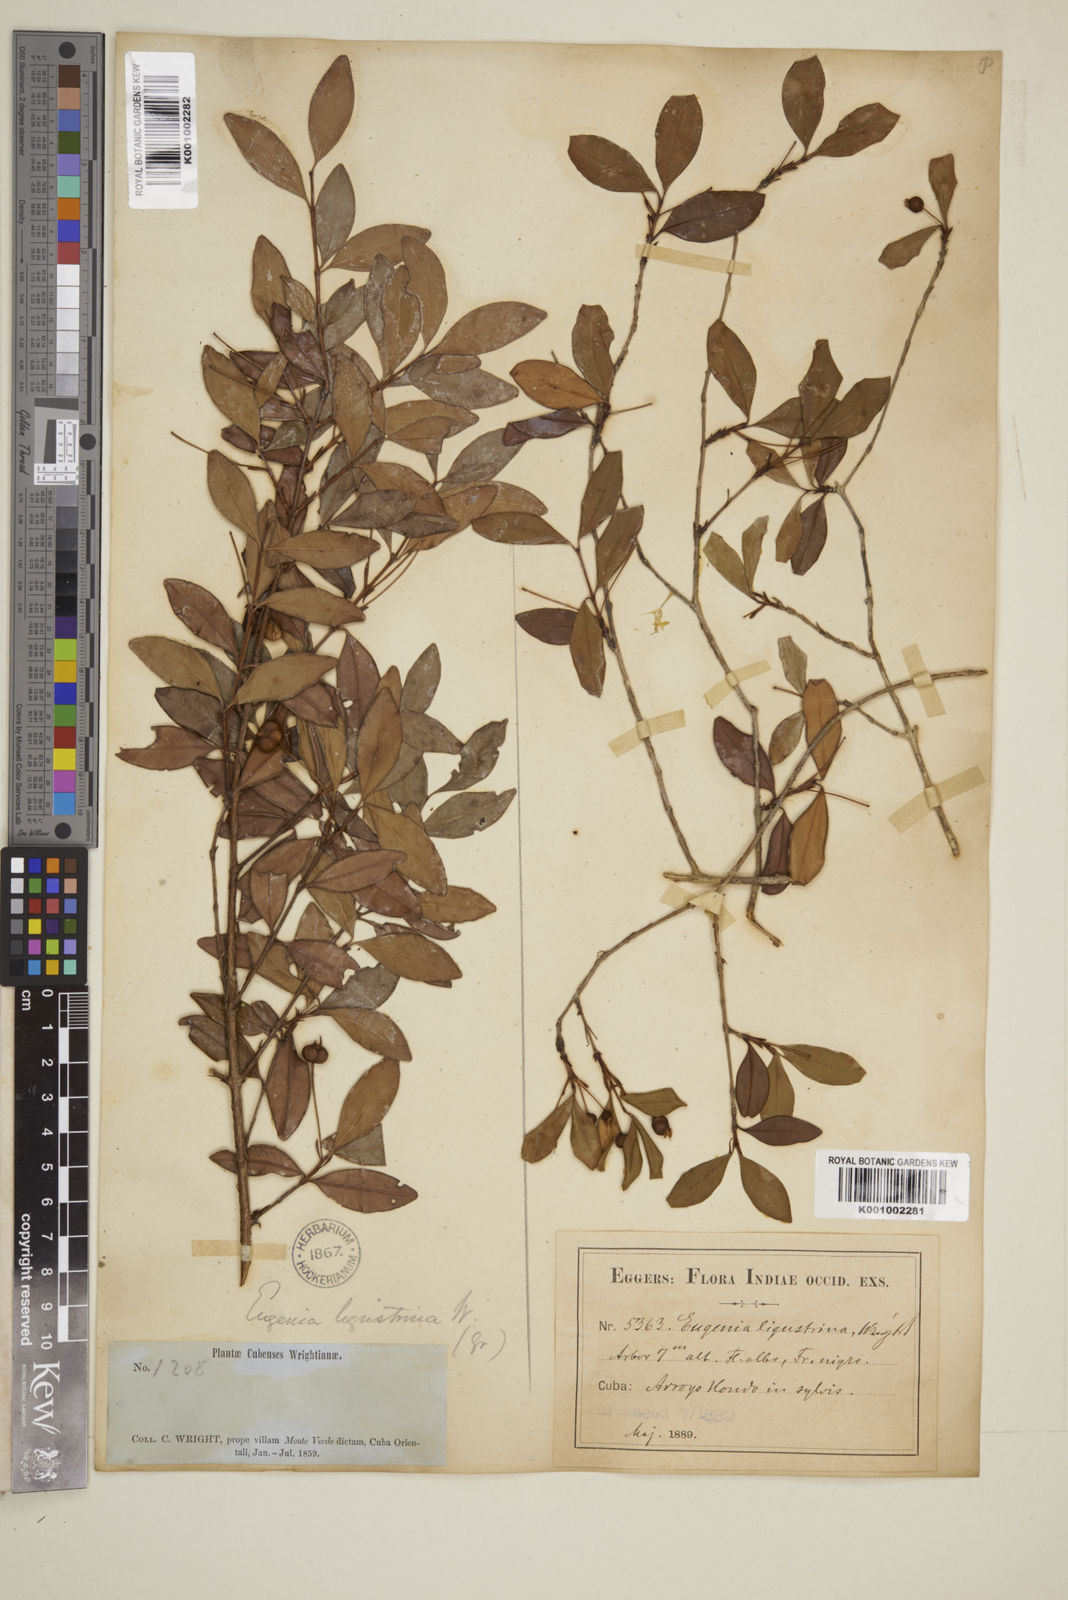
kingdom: Plantae
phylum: Tracheophyta
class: Magnoliopsida
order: Myrtales
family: Myrtaceae
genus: Eugenia
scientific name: Eugenia ligustrina
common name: Privet stopper
